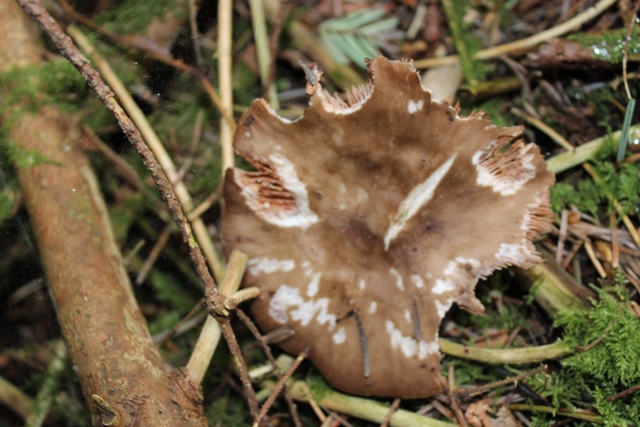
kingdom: Fungi
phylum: Basidiomycota
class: Agaricomycetes
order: Agaricales
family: Pluteaceae
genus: Pluteus
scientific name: Pluteus primus
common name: tidlig skærmhat
